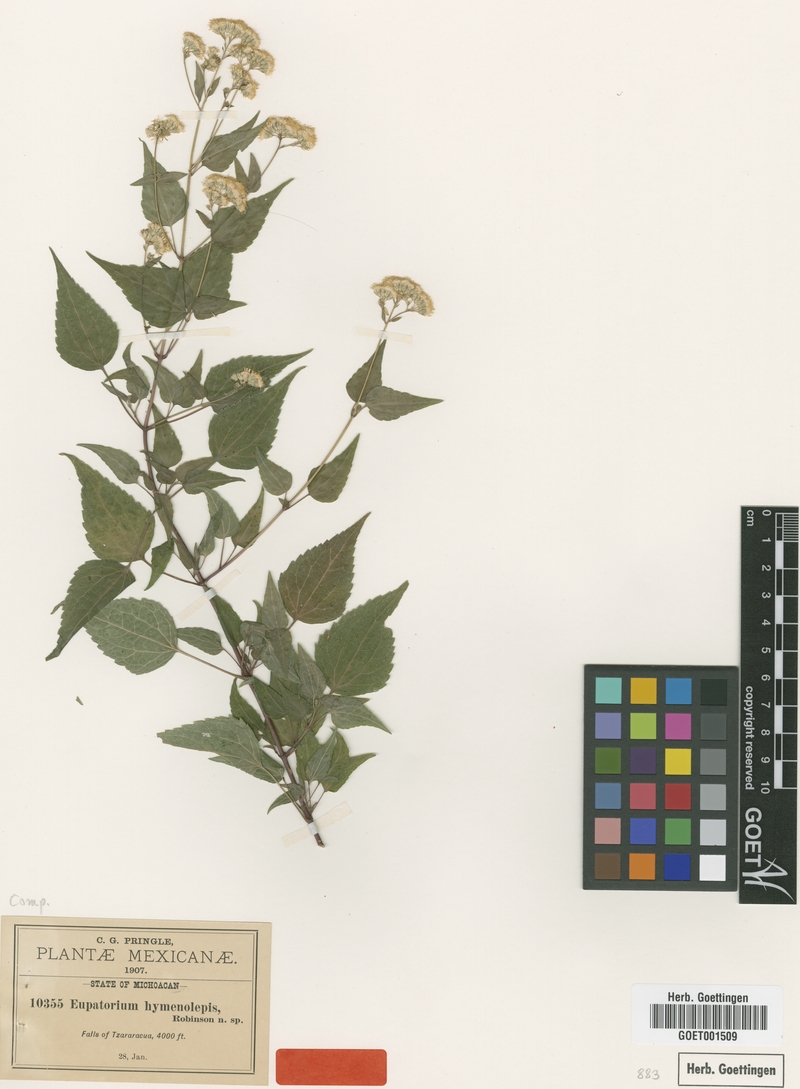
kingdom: Plantae
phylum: Tracheophyta
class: Magnoliopsida
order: Asterales
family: Asteraceae
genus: Fleischmannia
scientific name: Fleischmannia sonorae
